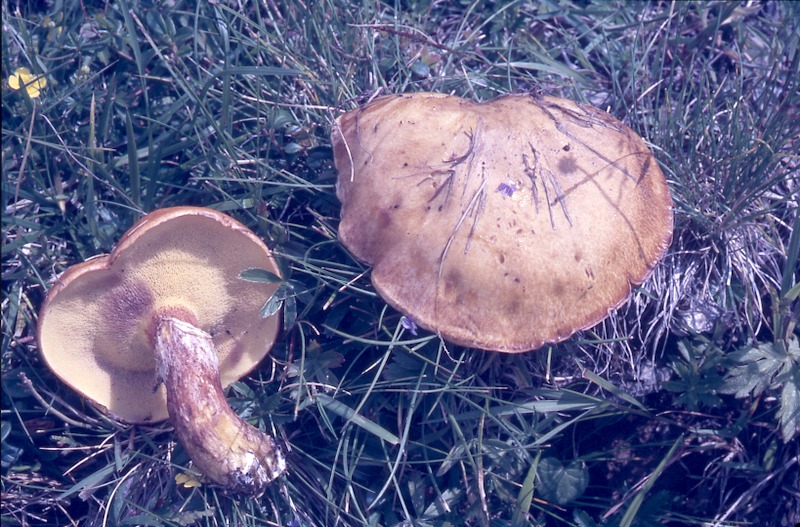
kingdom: Fungi
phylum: Basidiomycota
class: Agaricomycetes
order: Boletales
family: Suillaceae
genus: Suillus
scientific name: Suillus grevillei
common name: Larch bolete
